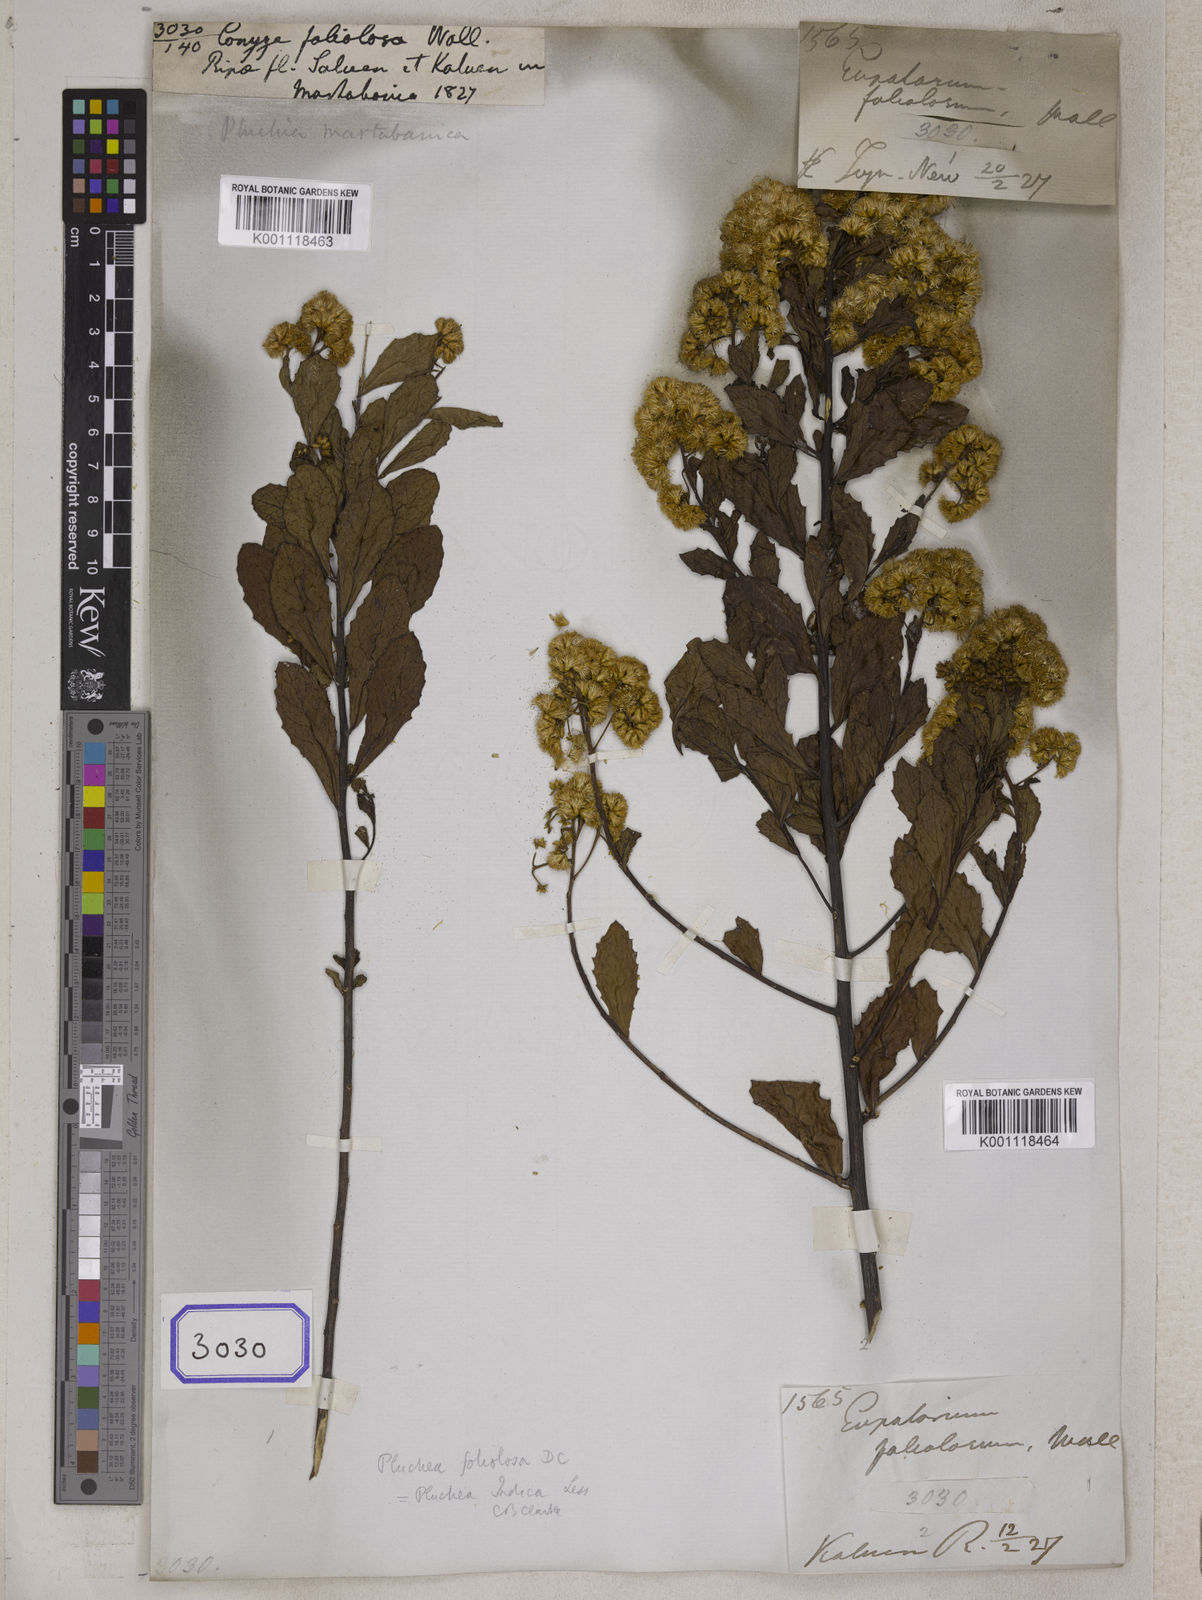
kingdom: Plantae
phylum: Tracheophyta
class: Magnoliopsida
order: Asterales
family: Asteraceae
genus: Pluchea
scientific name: Pluchea indica
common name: Indian fleabane
